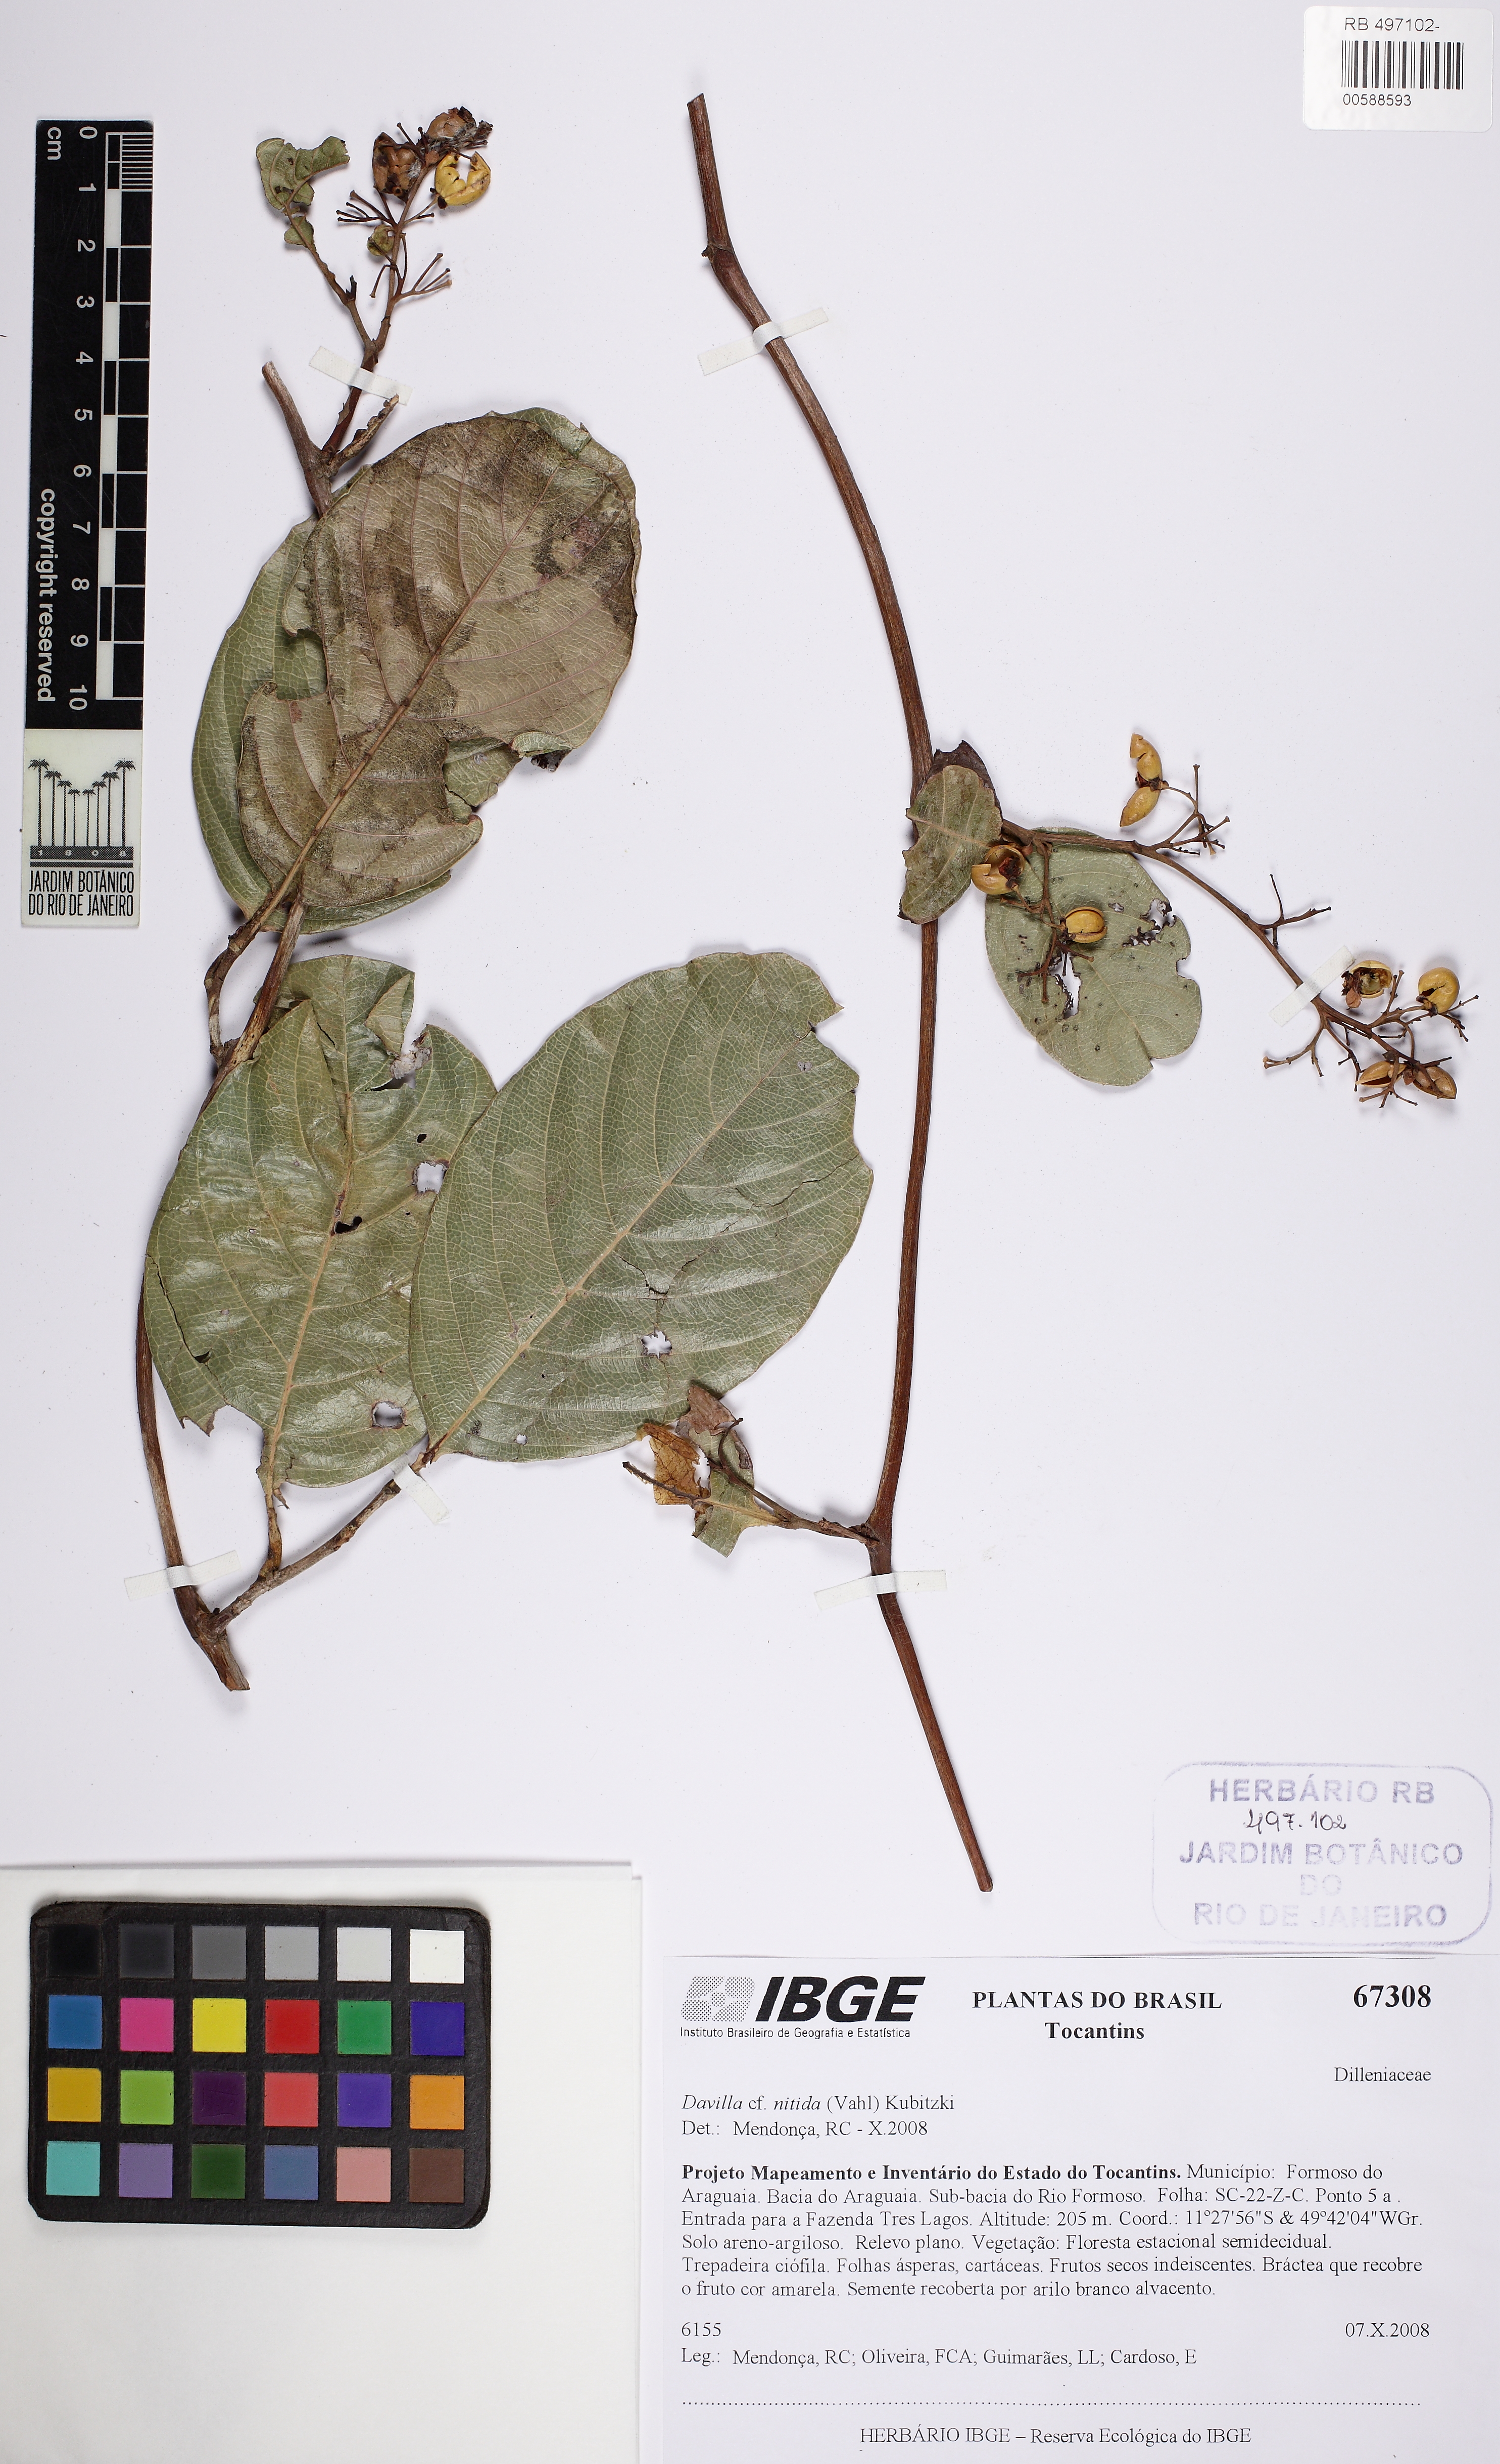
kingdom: Plantae
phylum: Tracheophyta
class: Magnoliopsida
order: Dilleniales
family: Dilleniaceae
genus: Davilla
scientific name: Davilla nitida
